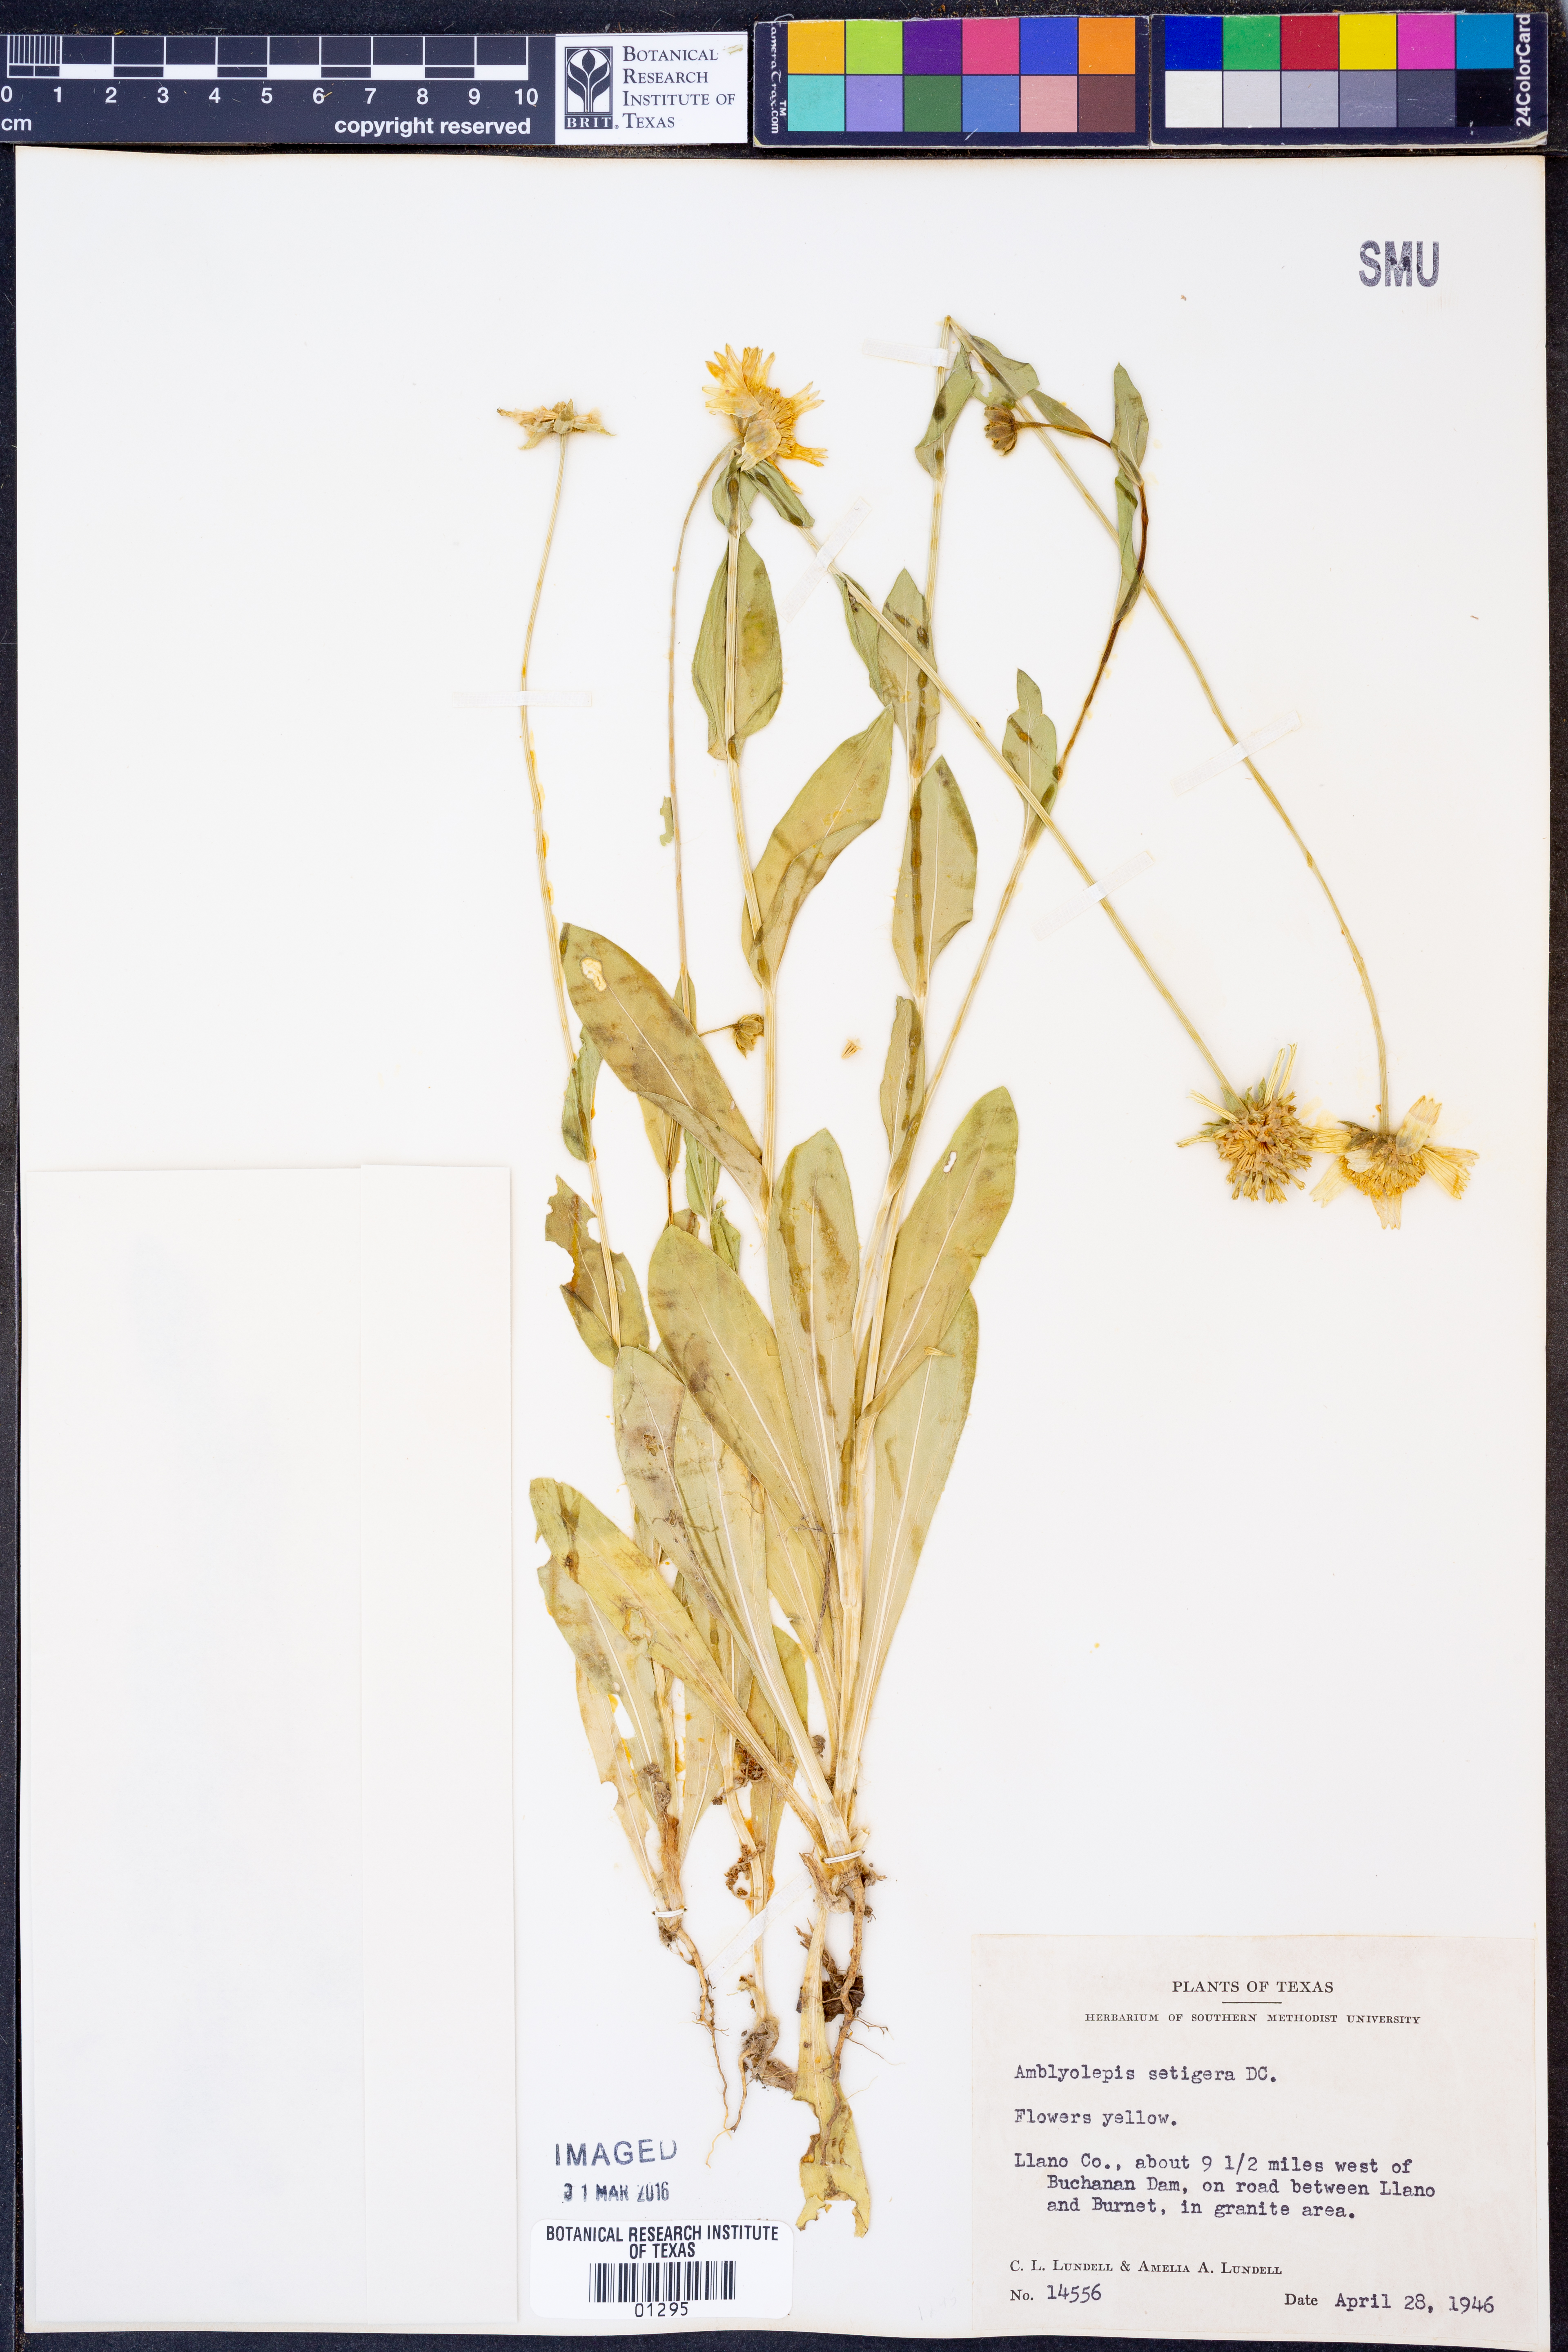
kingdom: Plantae
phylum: Tracheophyta
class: Magnoliopsida
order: Asterales
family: Asteraceae
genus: Amblyolepis
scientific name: Amblyolepis setigera
